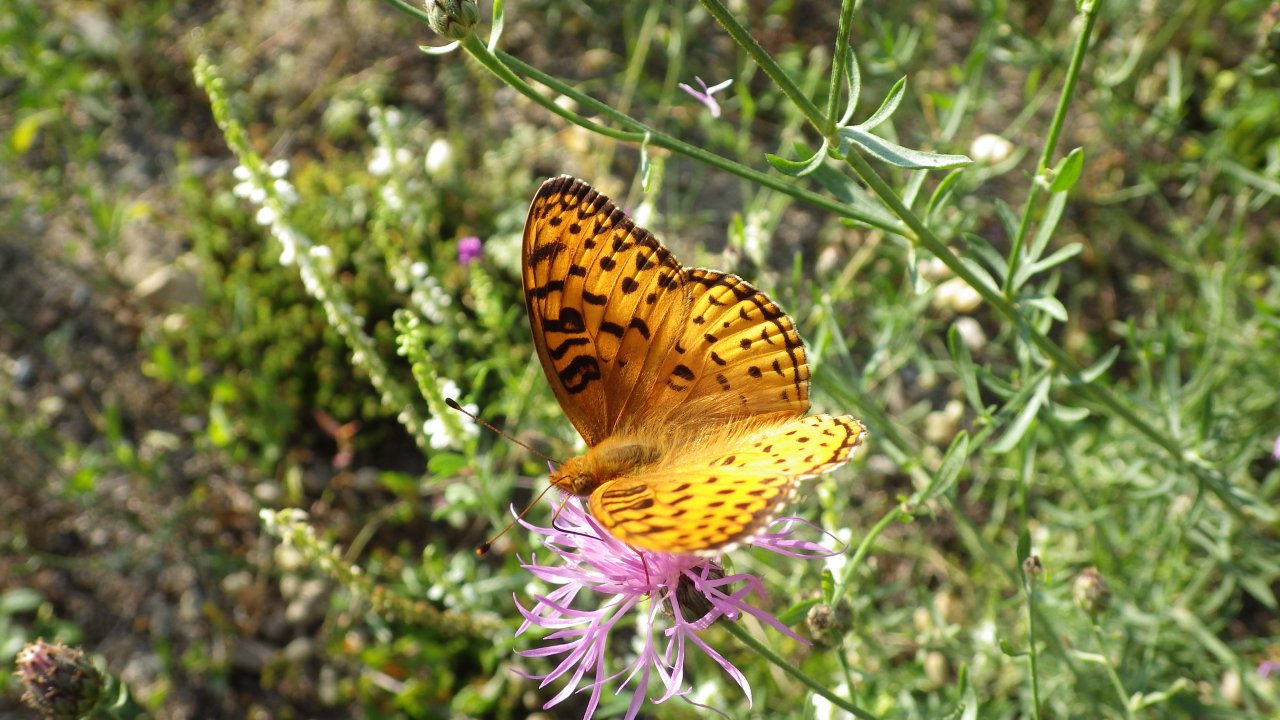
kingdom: Animalia
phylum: Arthropoda
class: Insecta
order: Lepidoptera
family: Nymphalidae
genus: Speyeria
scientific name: Speyeria aphrodite
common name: Aphrodite Fritillary
